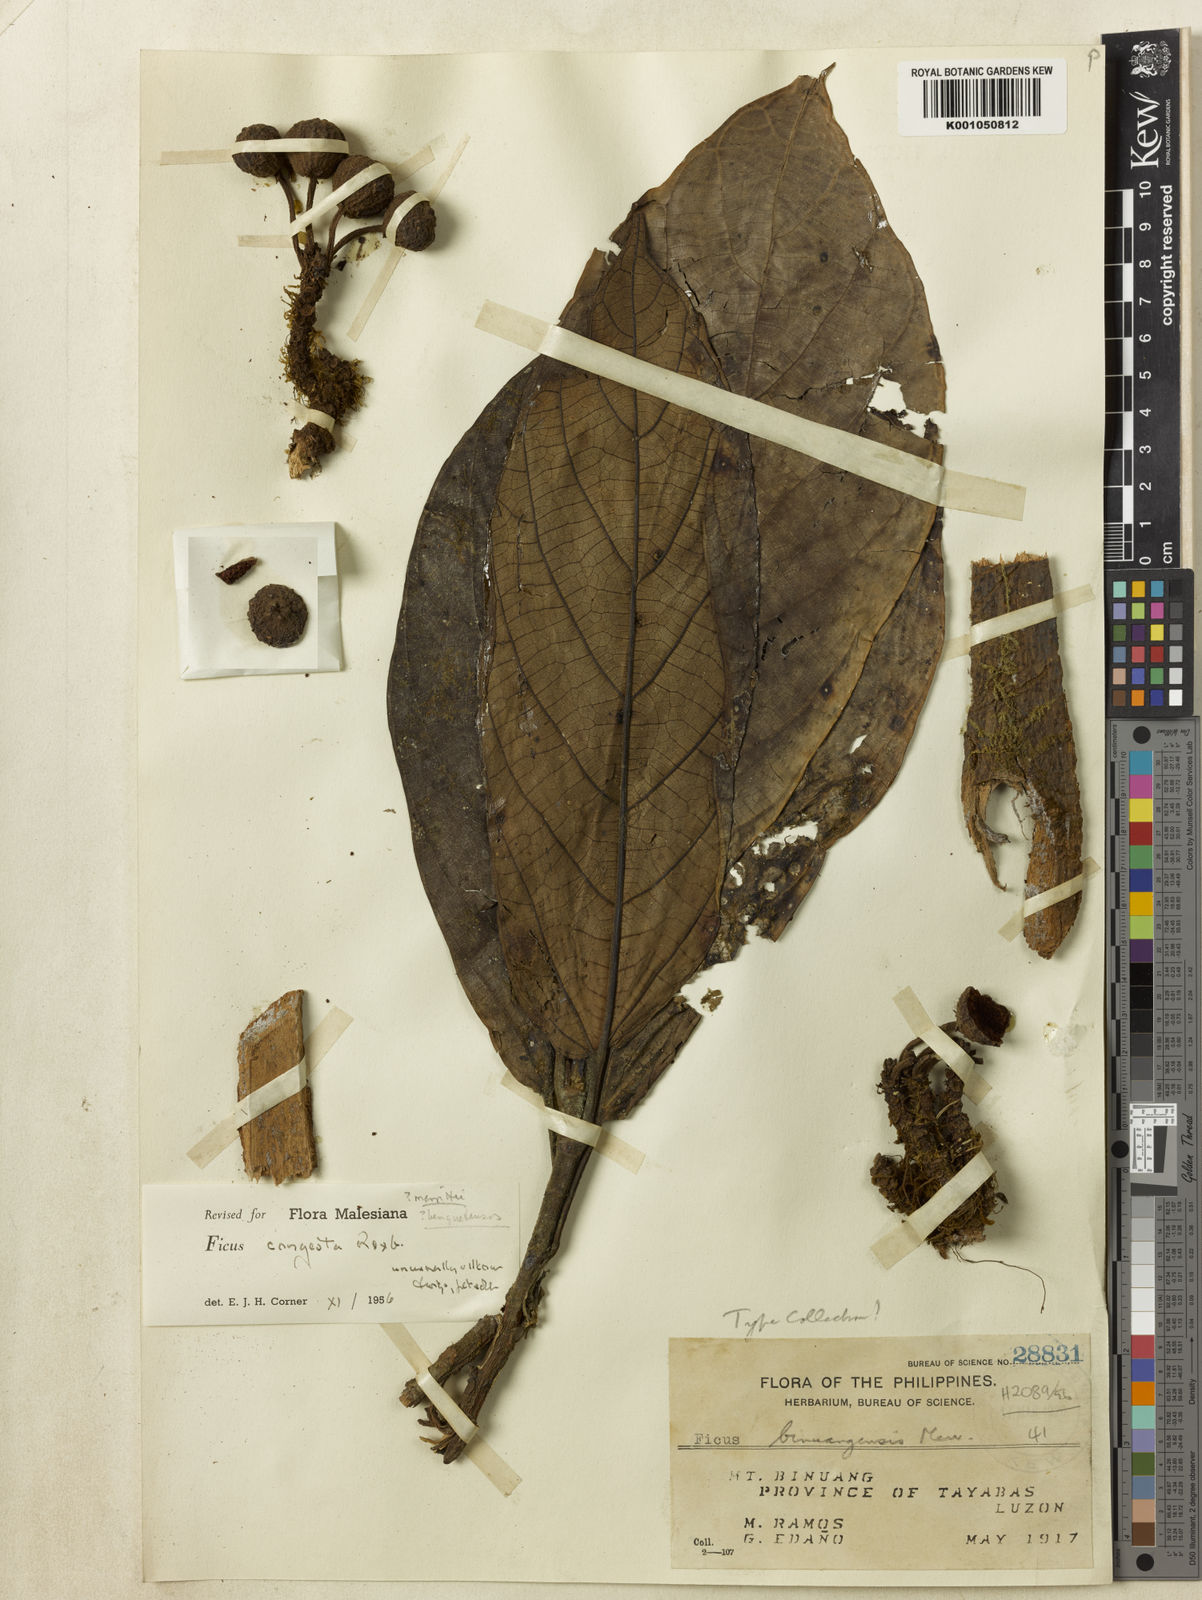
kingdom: Plantae
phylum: Tracheophyta
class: Magnoliopsida
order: Rosales
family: Moraceae
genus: Ficus
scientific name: Ficus congesta
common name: Cluster fig
